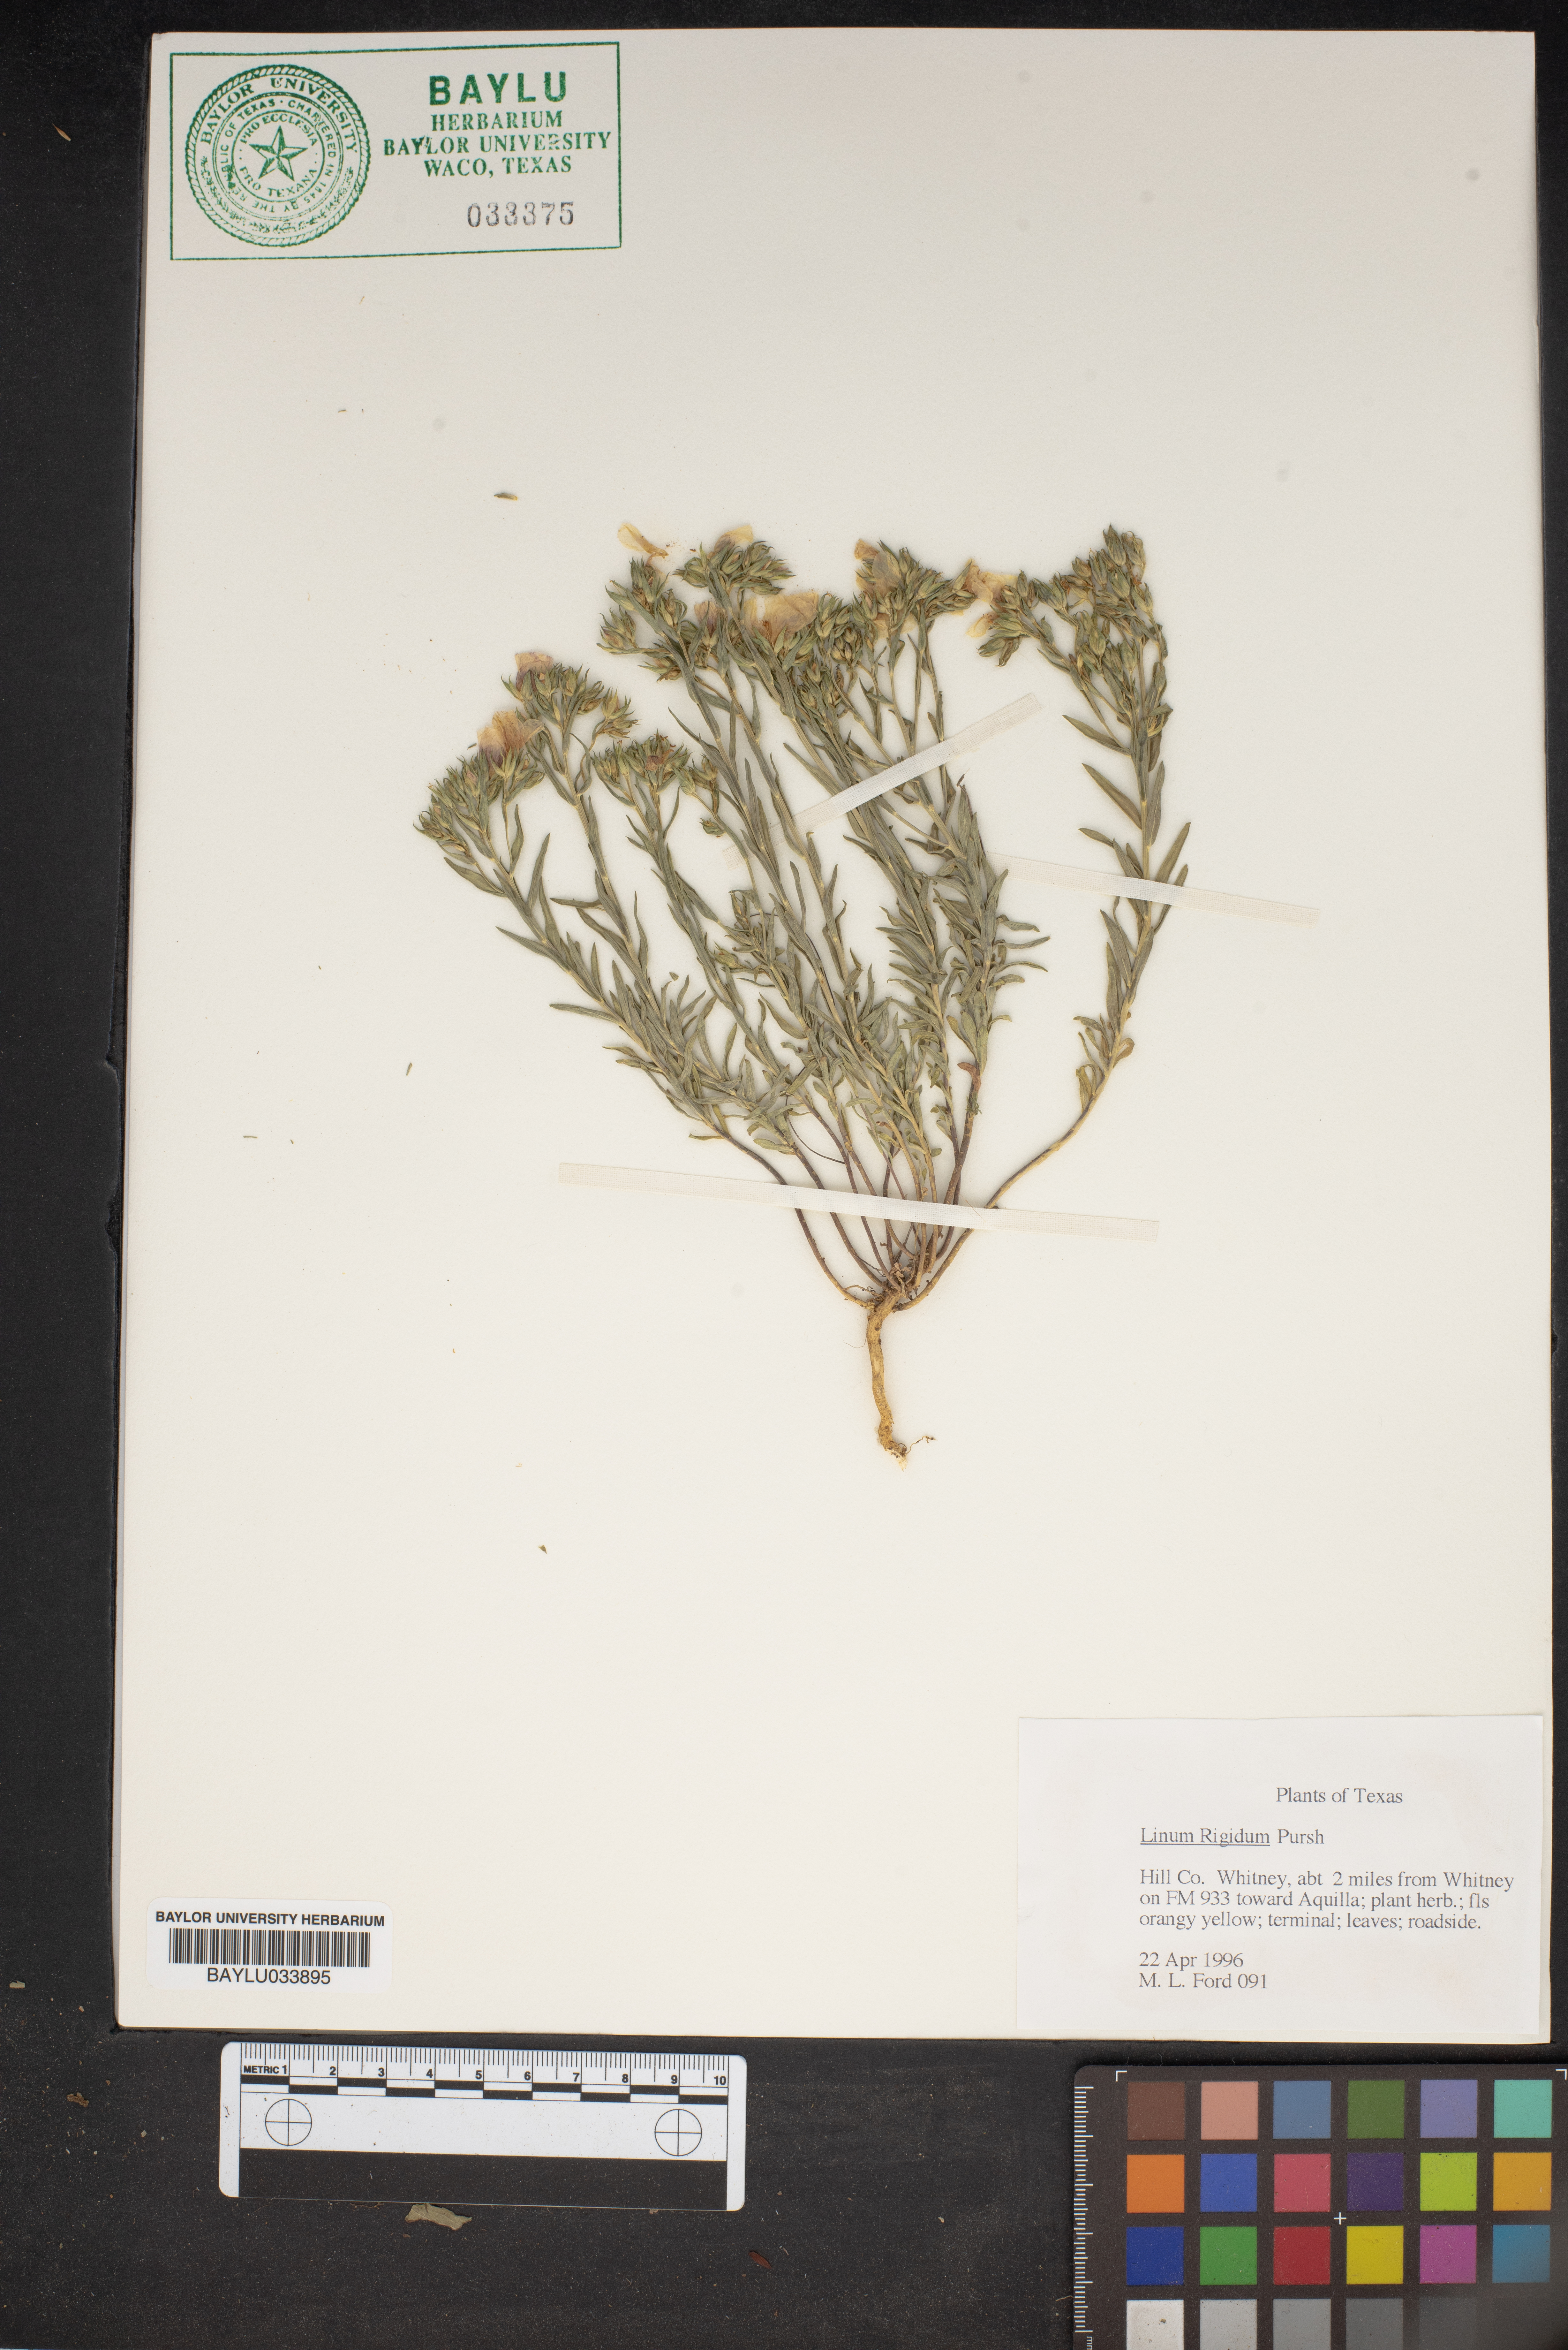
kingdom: Plantae
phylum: Tracheophyta
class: Magnoliopsida
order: Malpighiales
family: Linaceae
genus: Linum
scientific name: Linum rigidum
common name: Stiff-stem flax
